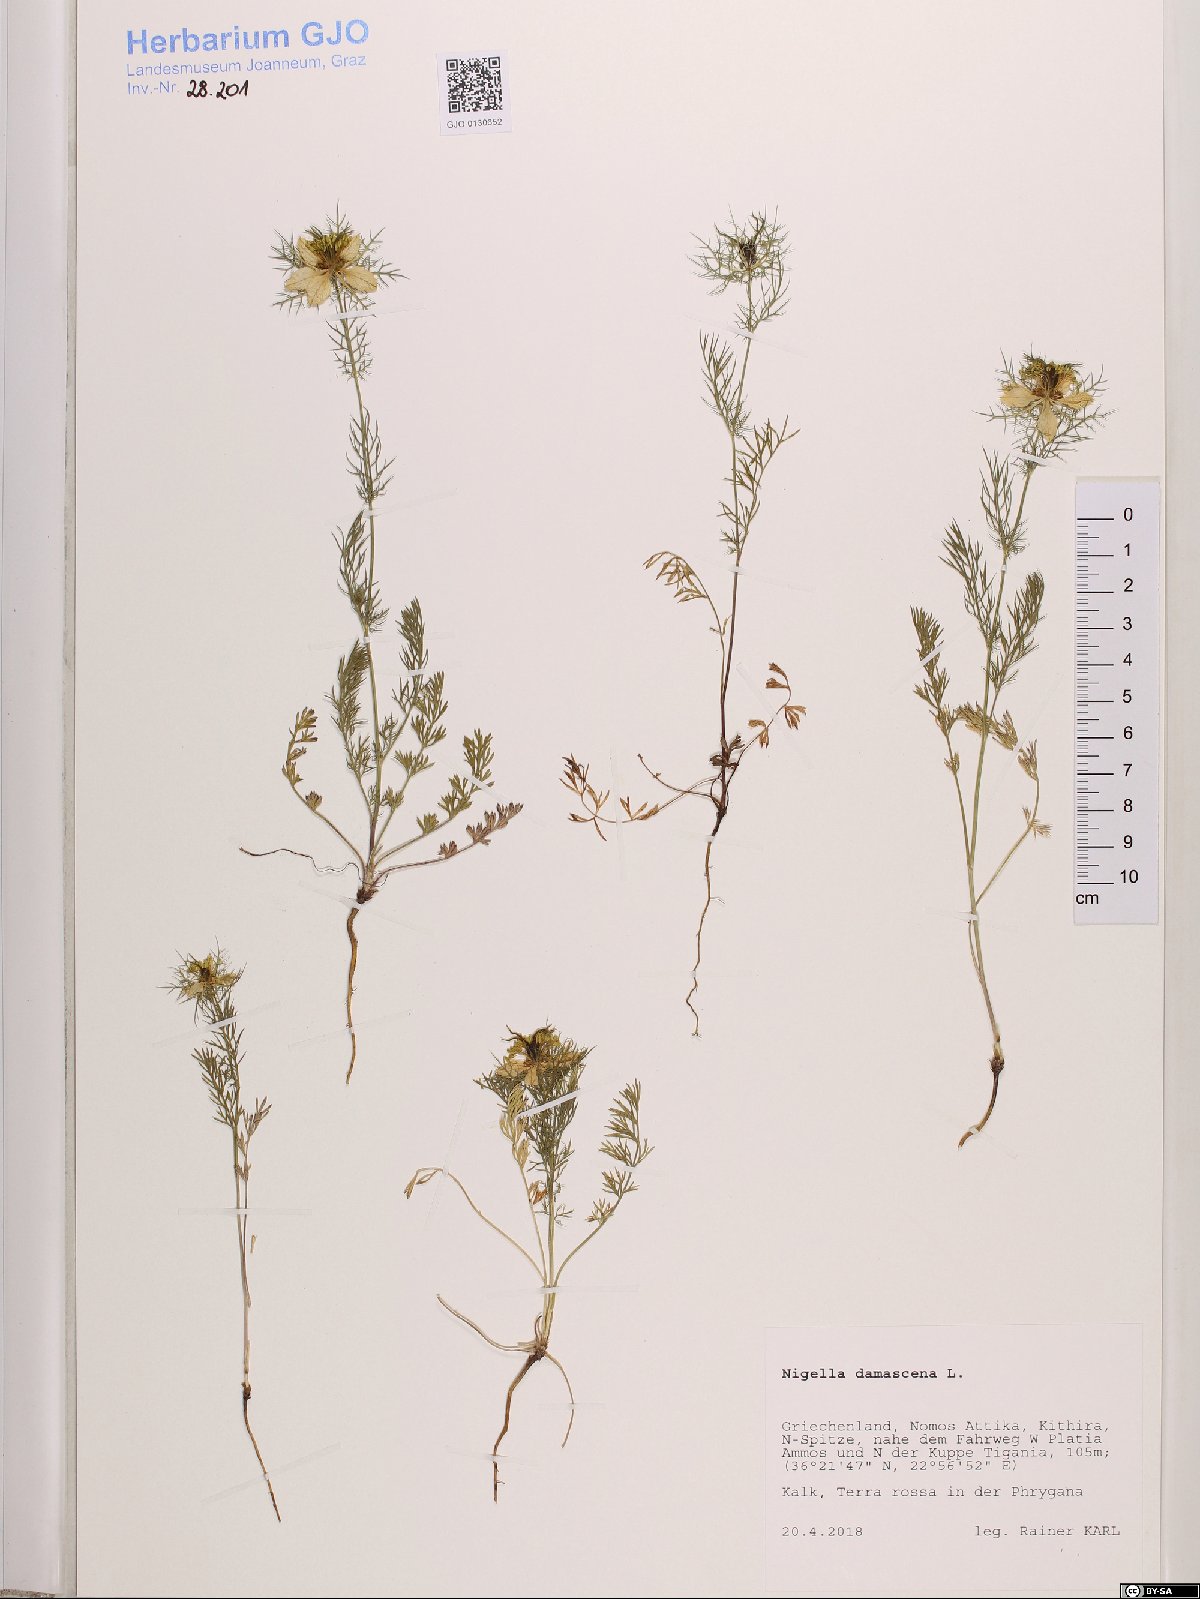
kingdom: Plantae
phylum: Tracheophyta
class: Magnoliopsida
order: Ranunculales
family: Ranunculaceae
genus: Nigella
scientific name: Nigella damascena
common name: Love-in-a-mist
